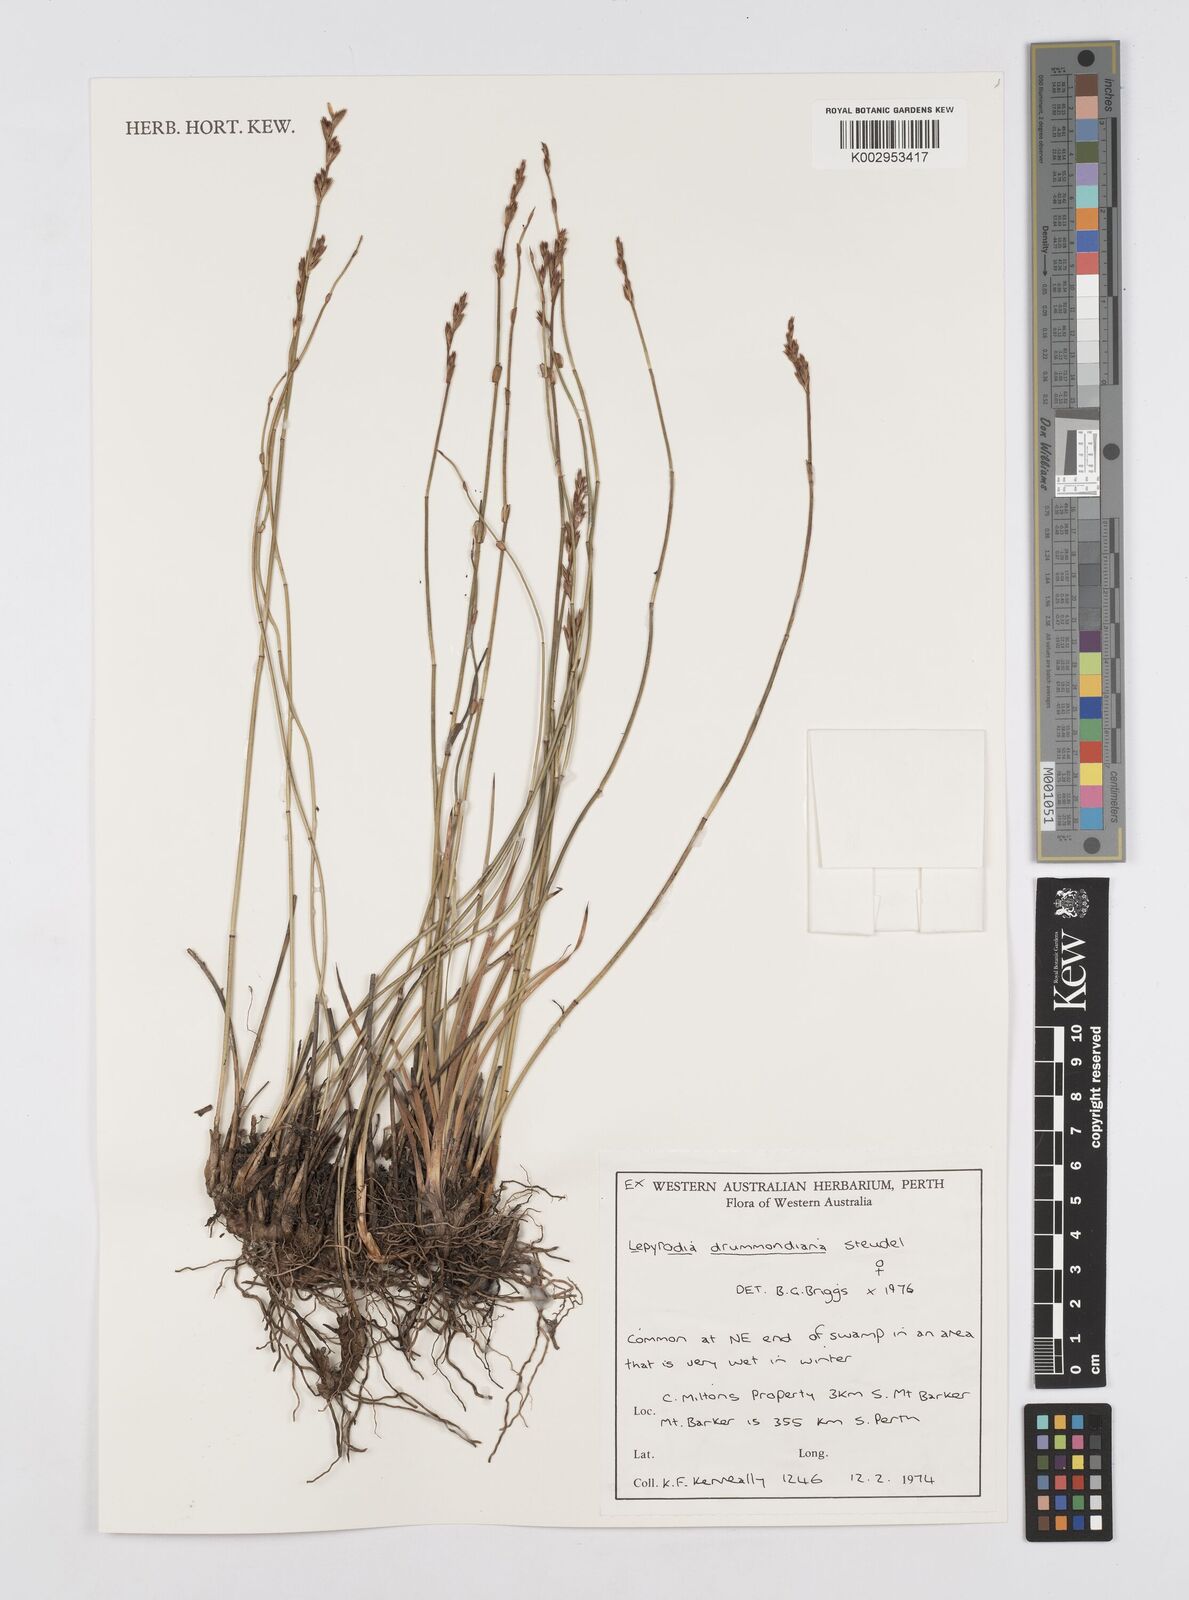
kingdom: Plantae
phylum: Tracheophyta
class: Liliopsida
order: Poales
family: Restionaceae
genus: Lepyrodia
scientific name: Lepyrodia drummondiana
